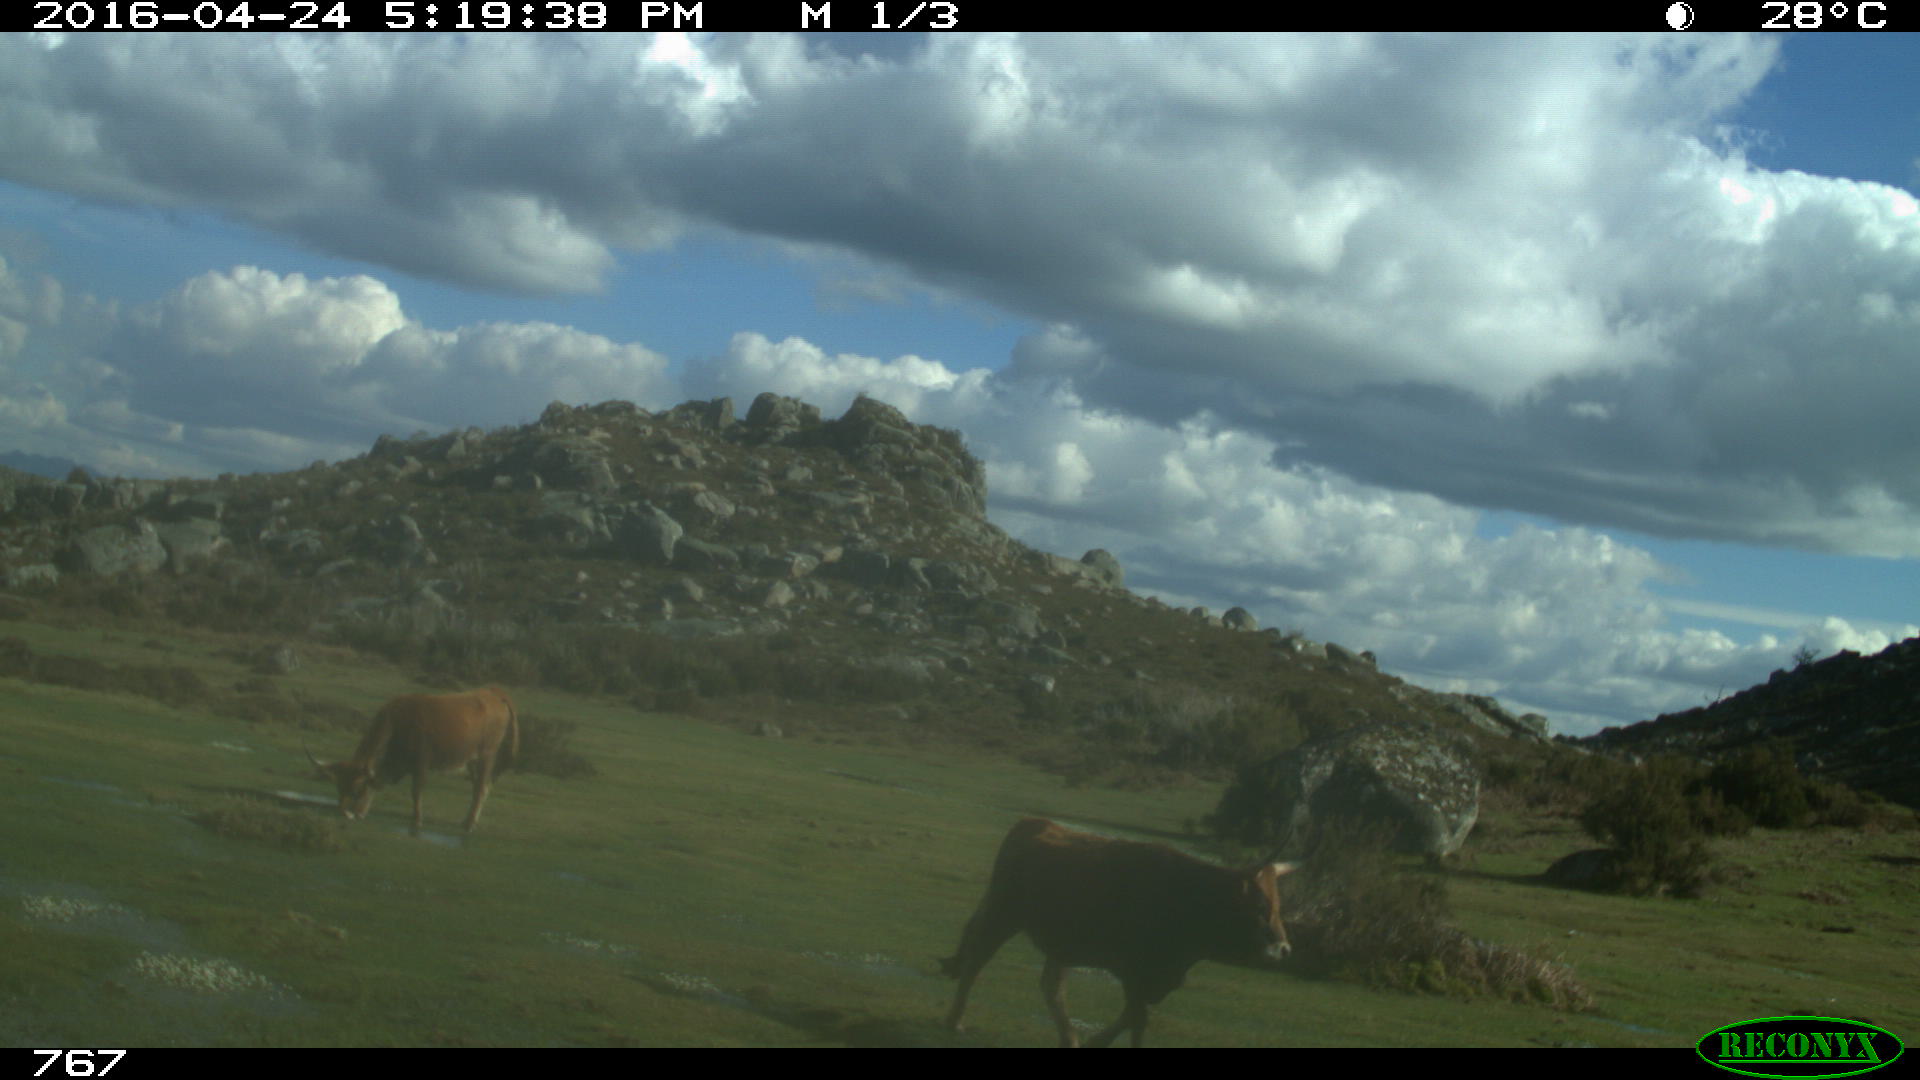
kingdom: Animalia
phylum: Chordata
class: Mammalia
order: Artiodactyla
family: Bovidae
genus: Bos
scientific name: Bos taurus
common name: Domesticated cattle
